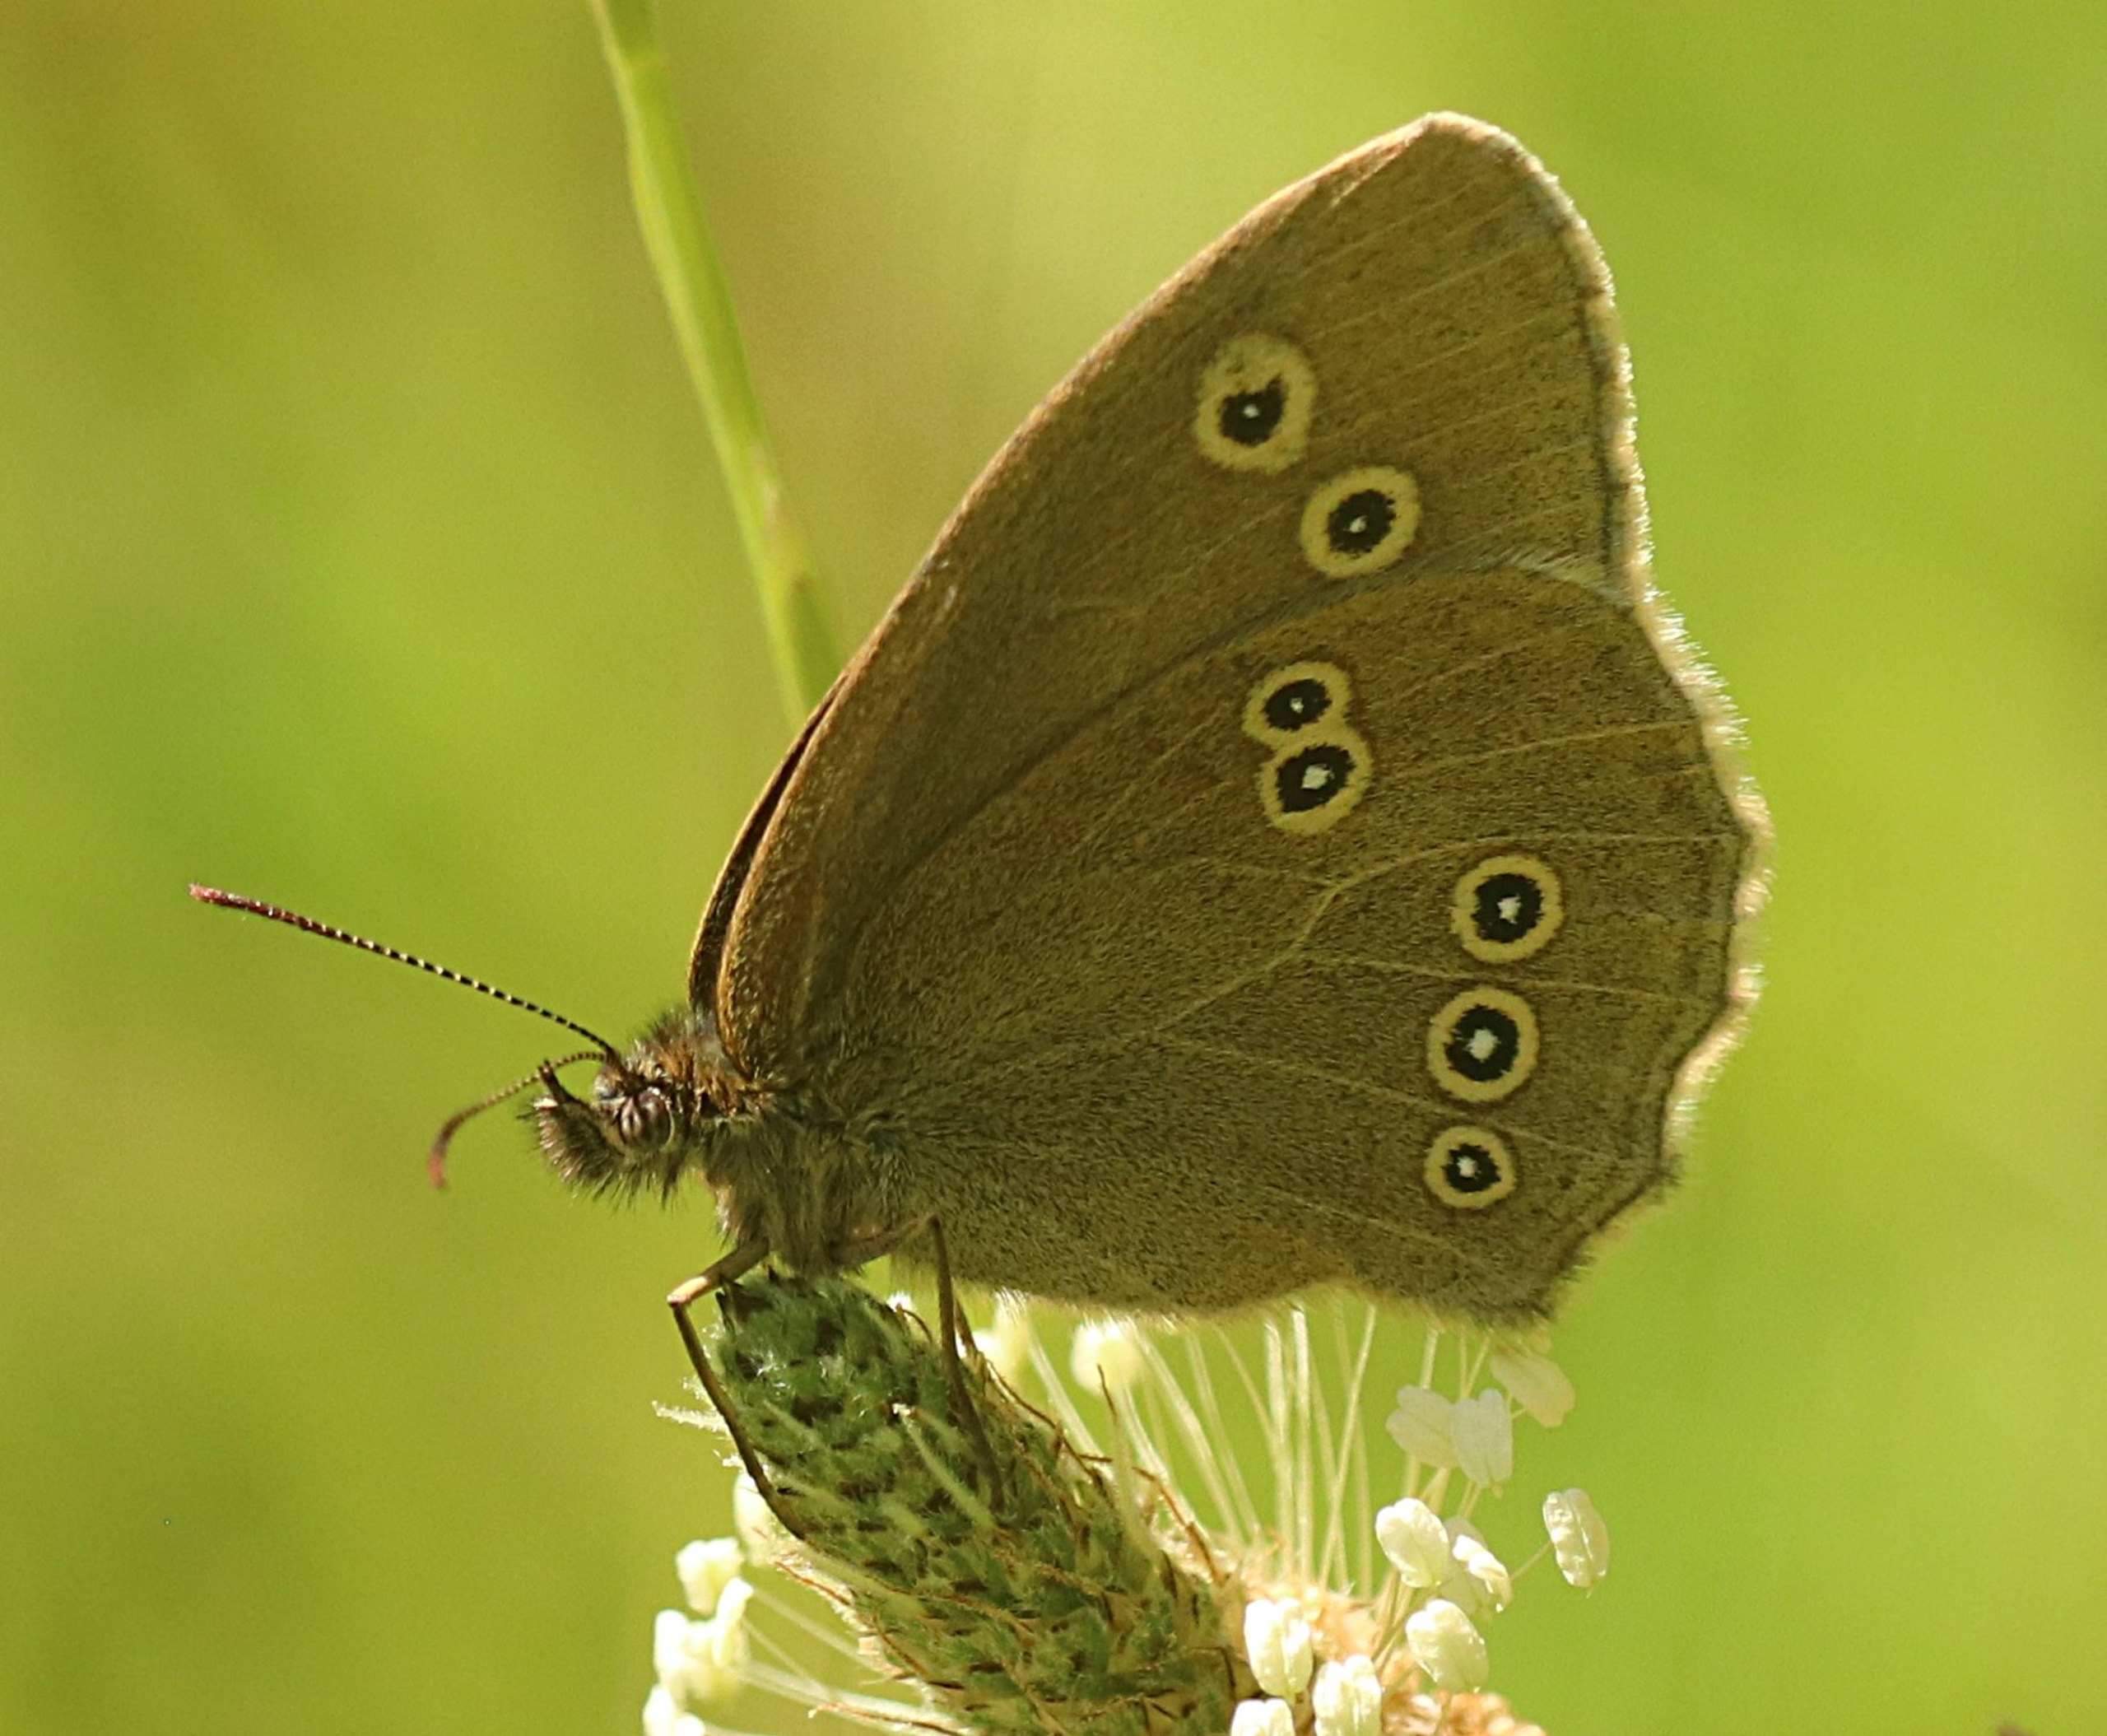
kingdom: Animalia
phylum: Arthropoda
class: Insecta
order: Lepidoptera
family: Nymphalidae
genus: Aphantopus
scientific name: Aphantopus hyperantus
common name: Engrandøje
